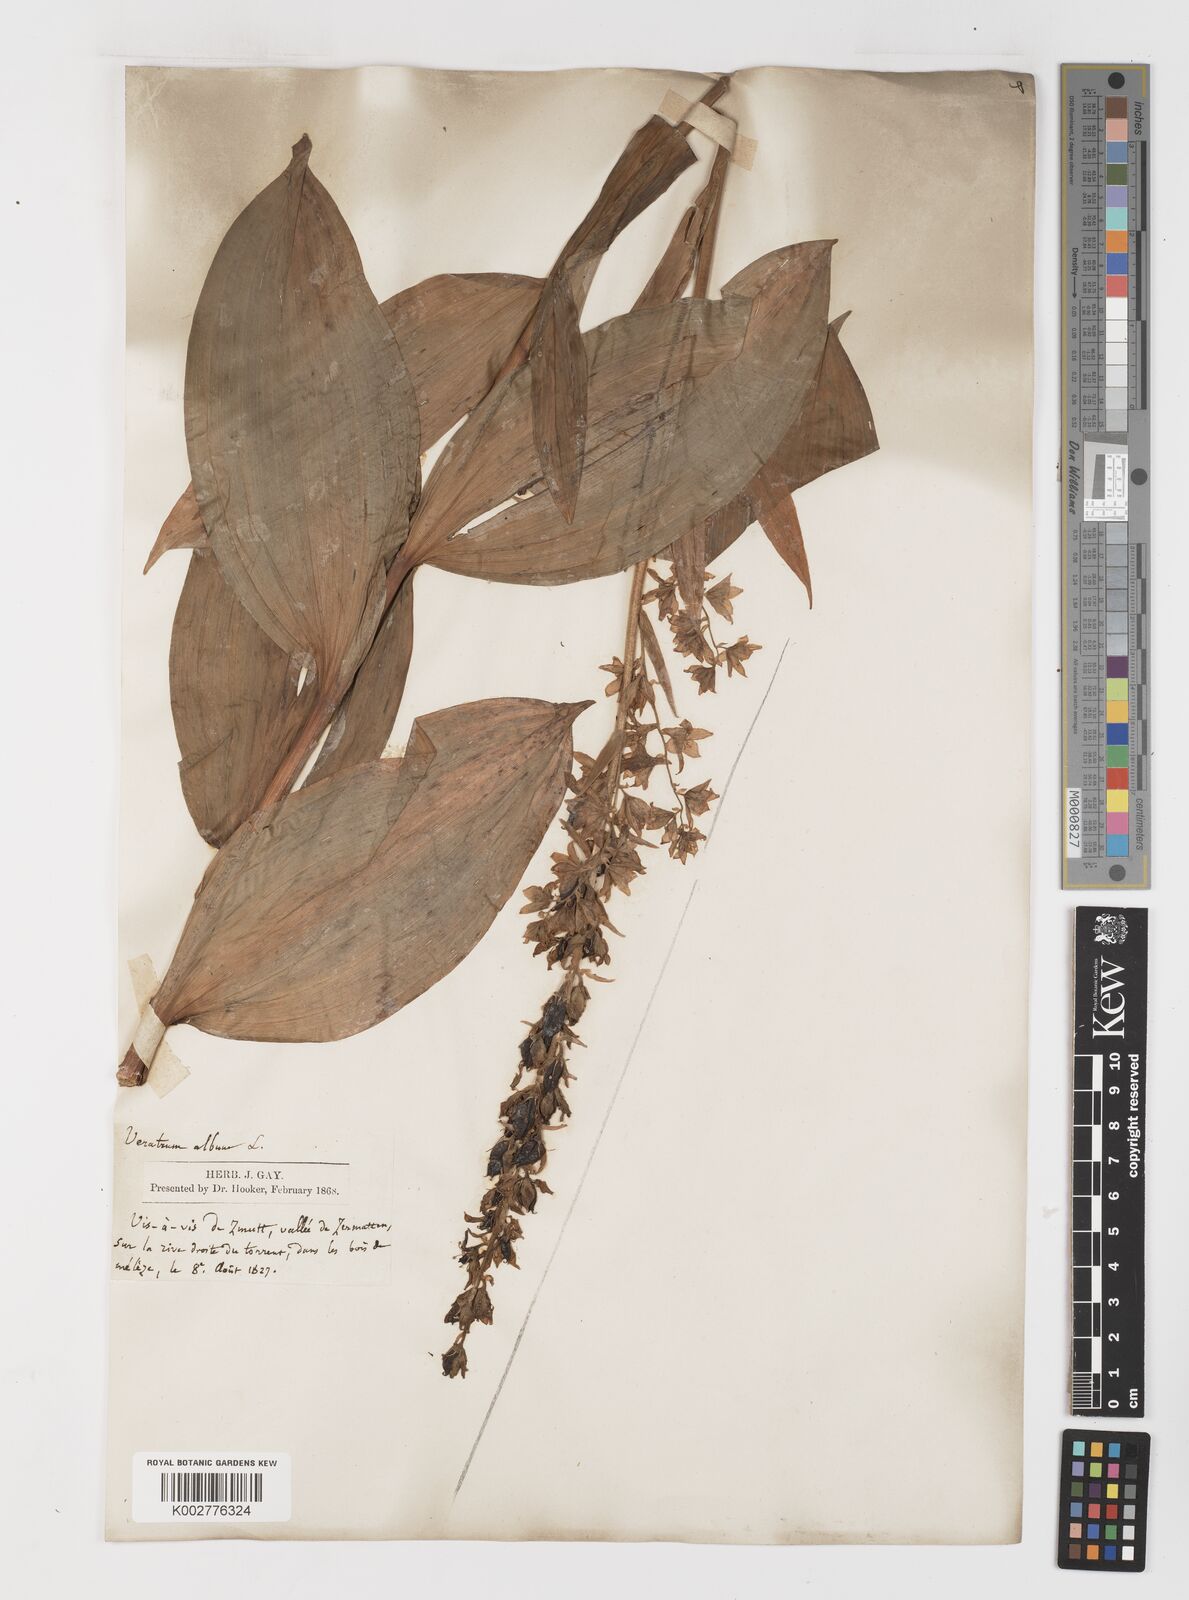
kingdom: Plantae
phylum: Tracheophyta
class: Liliopsida
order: Liliales
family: Melanthiaceae
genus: Veratrum
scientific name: Veratrum album
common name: White veratrum
